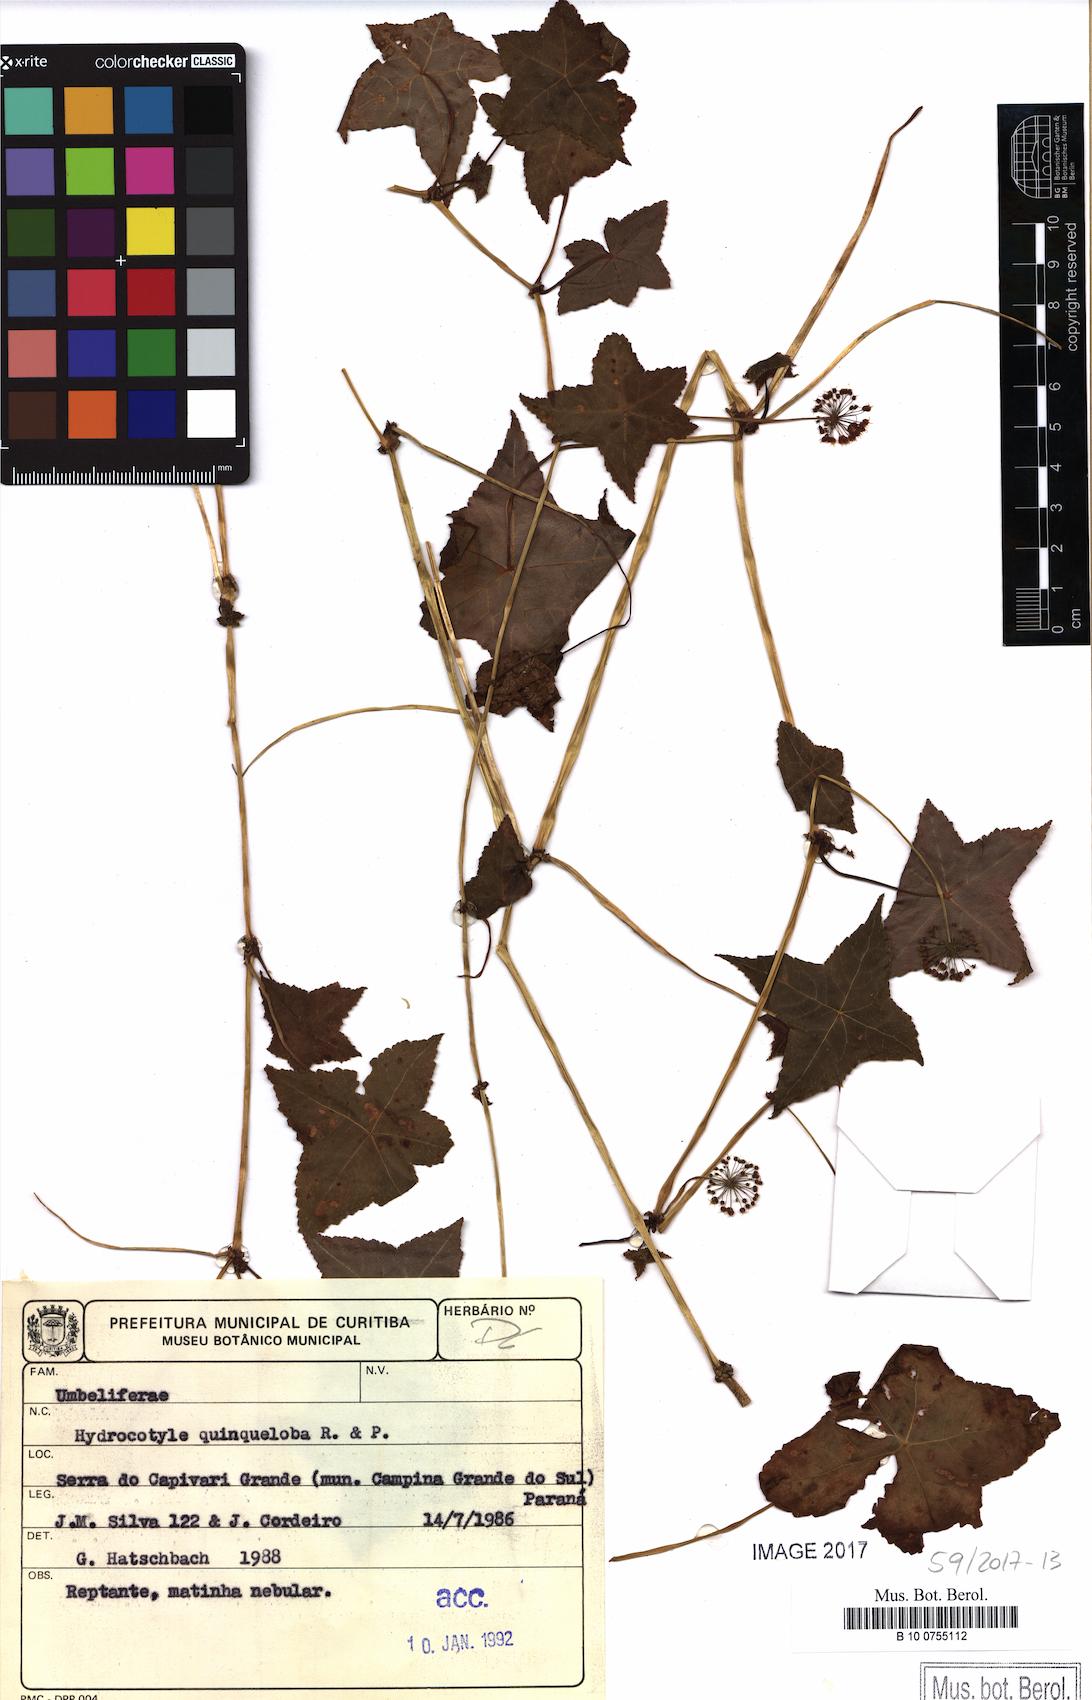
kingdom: Plantae
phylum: Tracheophyta
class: Magnoliopsida
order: Apiales
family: Araliaceae
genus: Hydrocotyle
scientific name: Hydrocotyle quinqueloba
